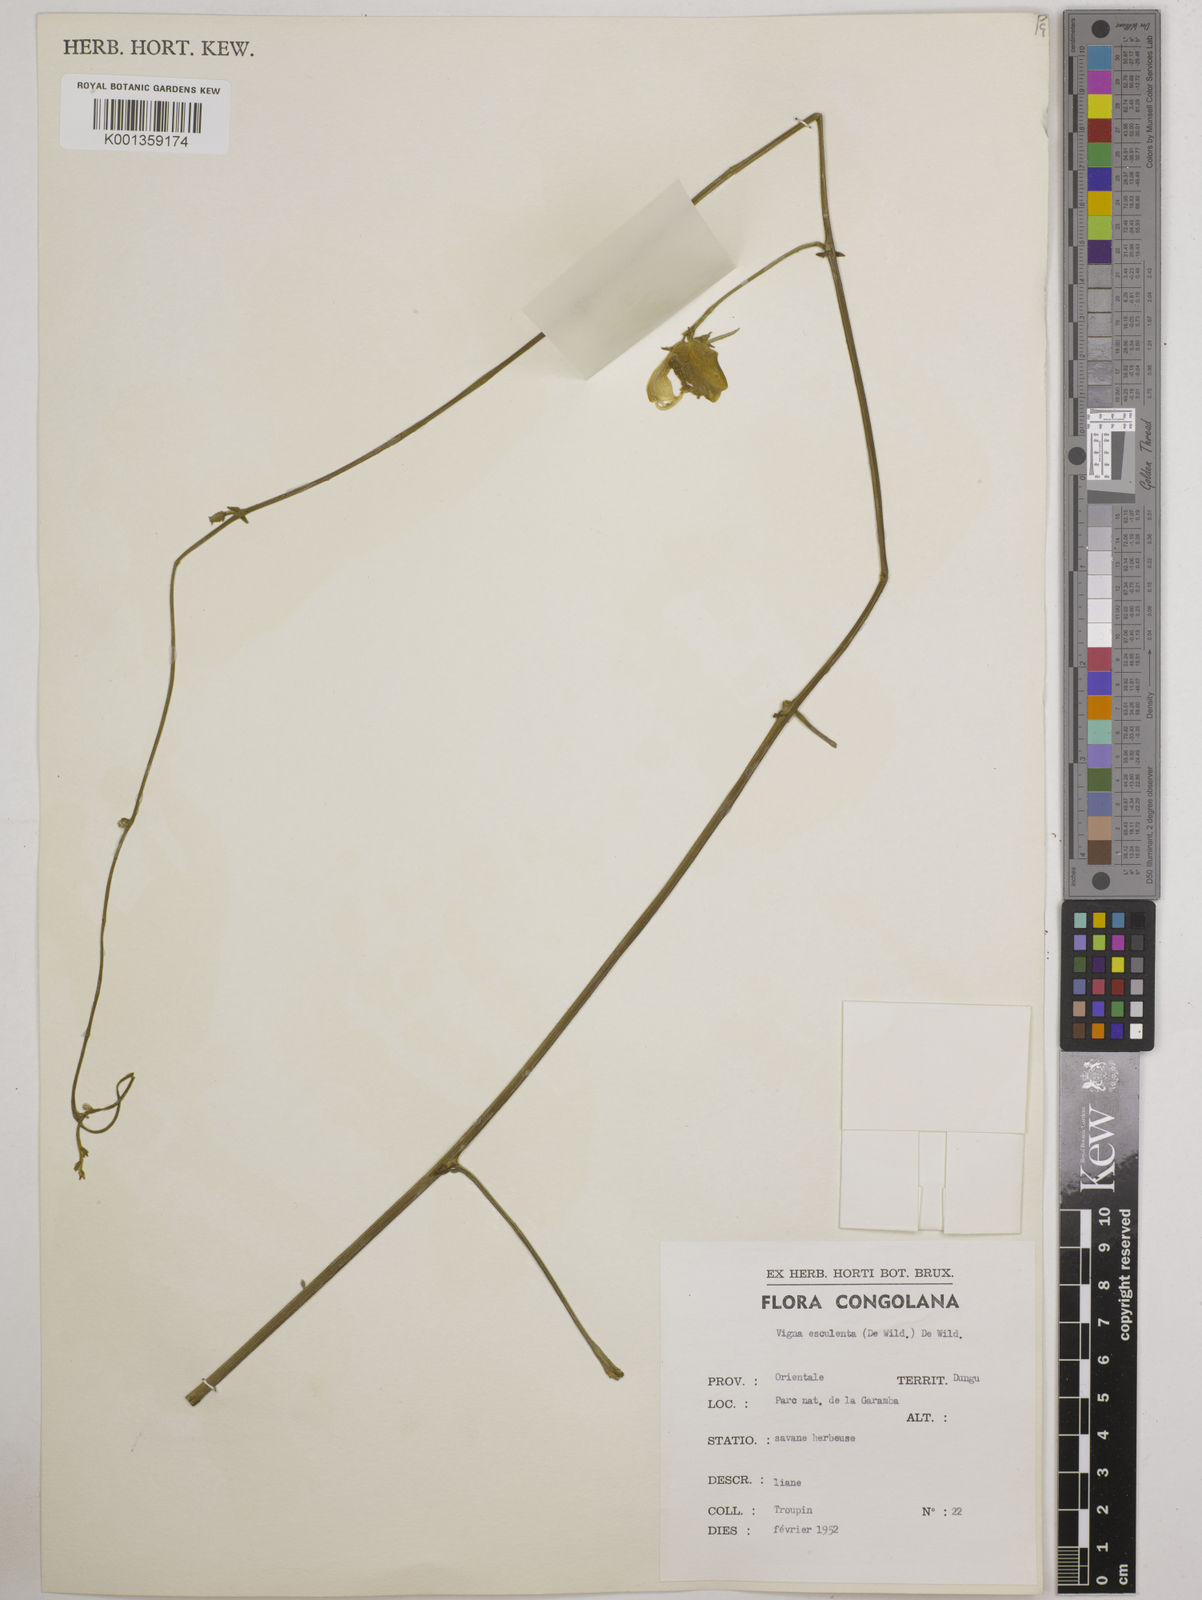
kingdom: Plantae
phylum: Tracheophyta
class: Magnoliopsida
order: Fabales
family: Fabaceae
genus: Vigna
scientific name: Vigna frutescens
